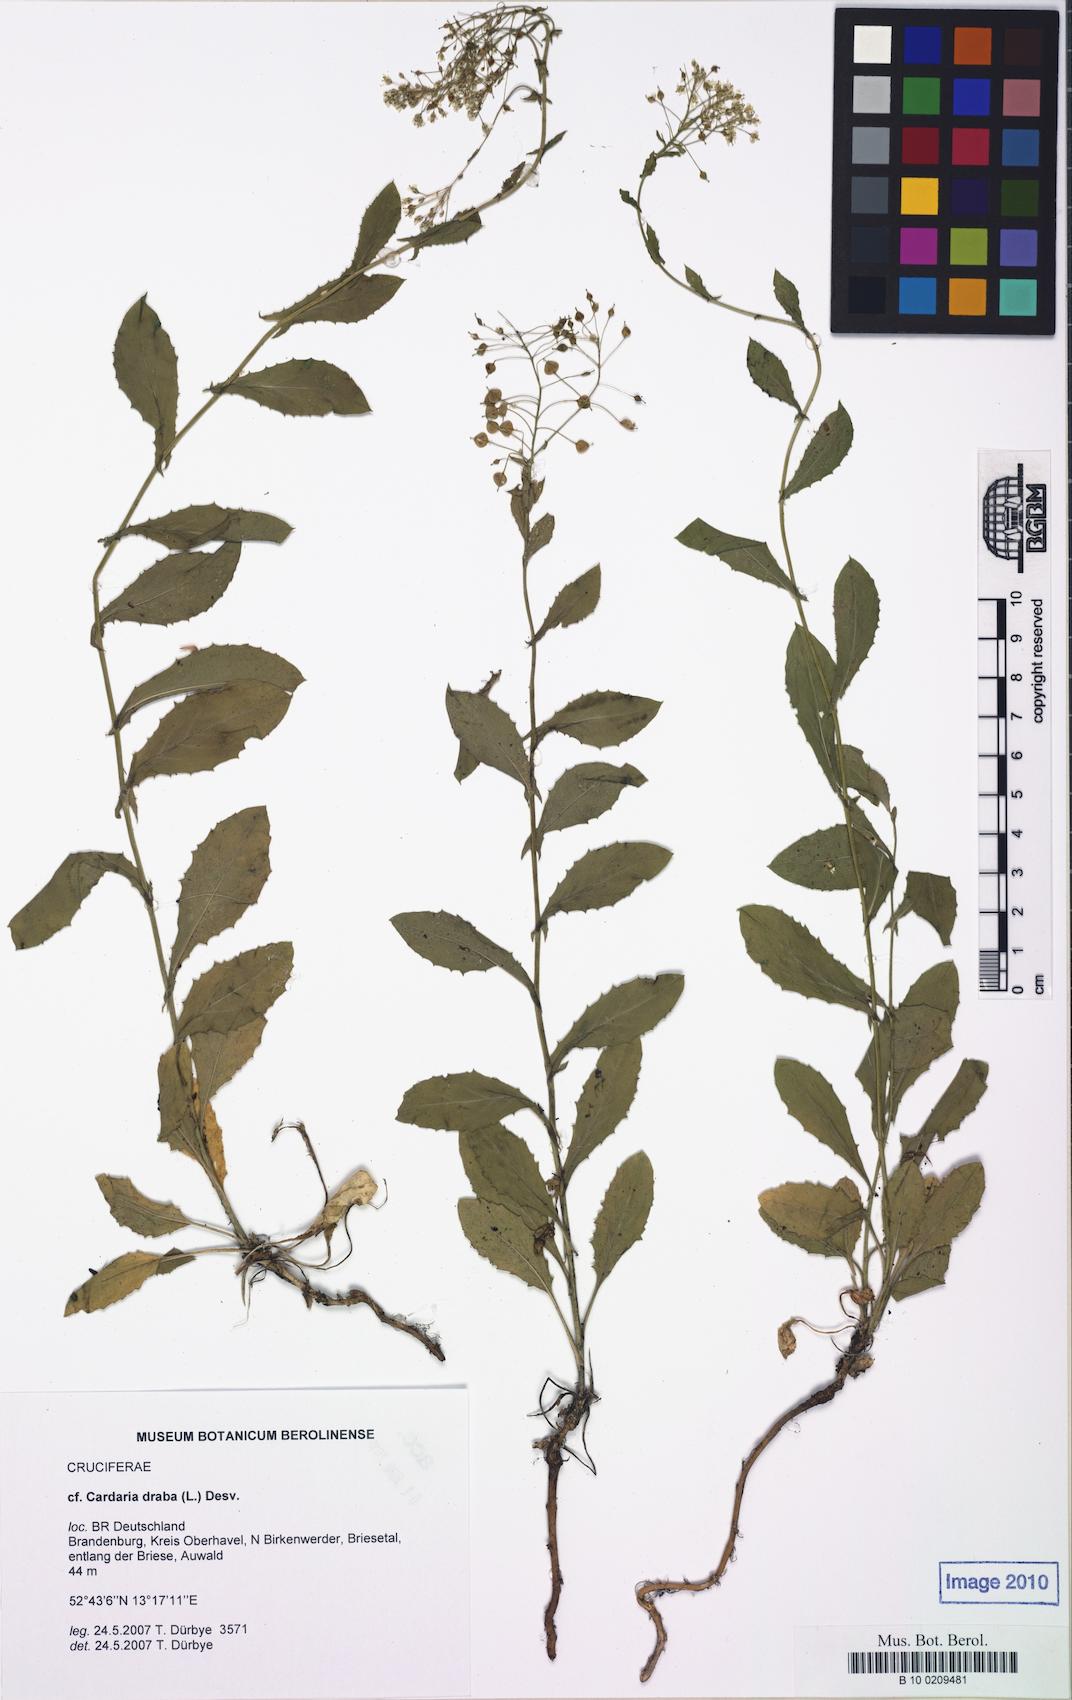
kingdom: Plantae
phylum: Tracheophyta
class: Magnoliopsida
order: Brassicales
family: Brassicaceae
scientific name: Brassicaceae
